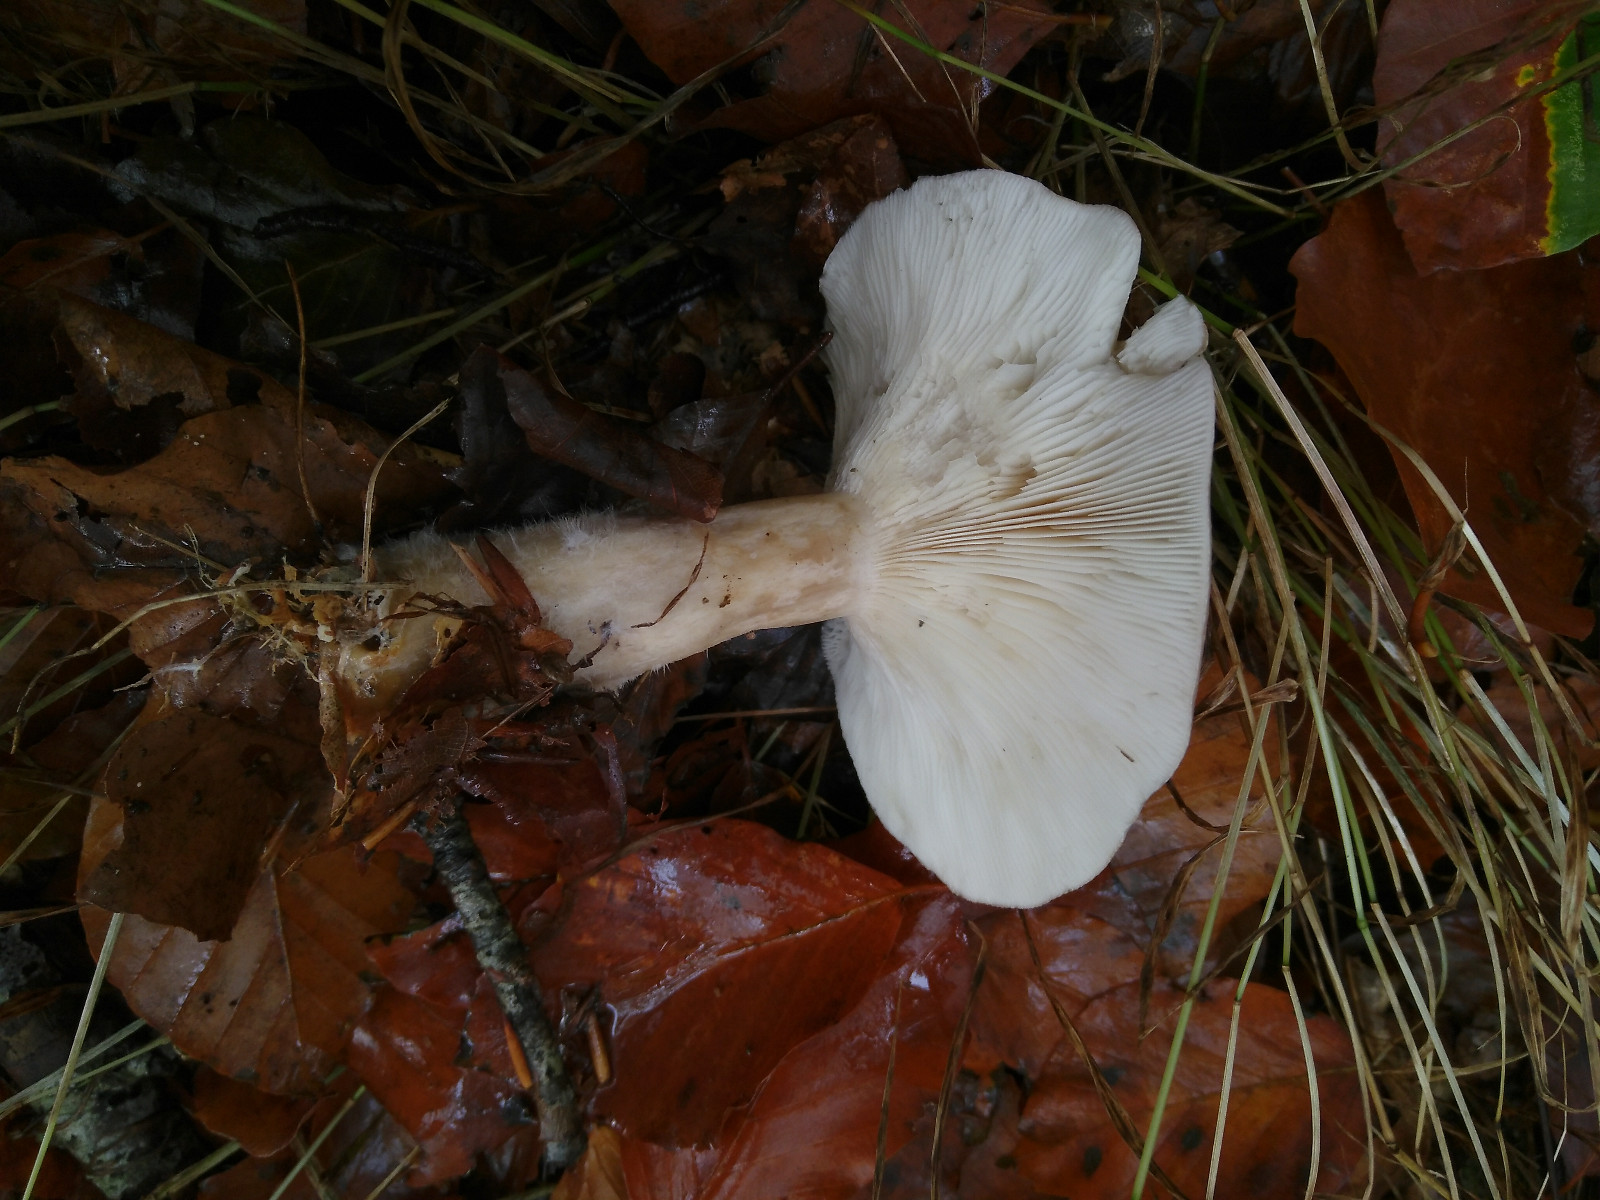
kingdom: Fungi
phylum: Basidiomycota
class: Agaricomycetes
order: Agaricales
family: Tricholomataceae
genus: Clitocybe
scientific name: Clitocybe nebularis
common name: tåge-tragthat
